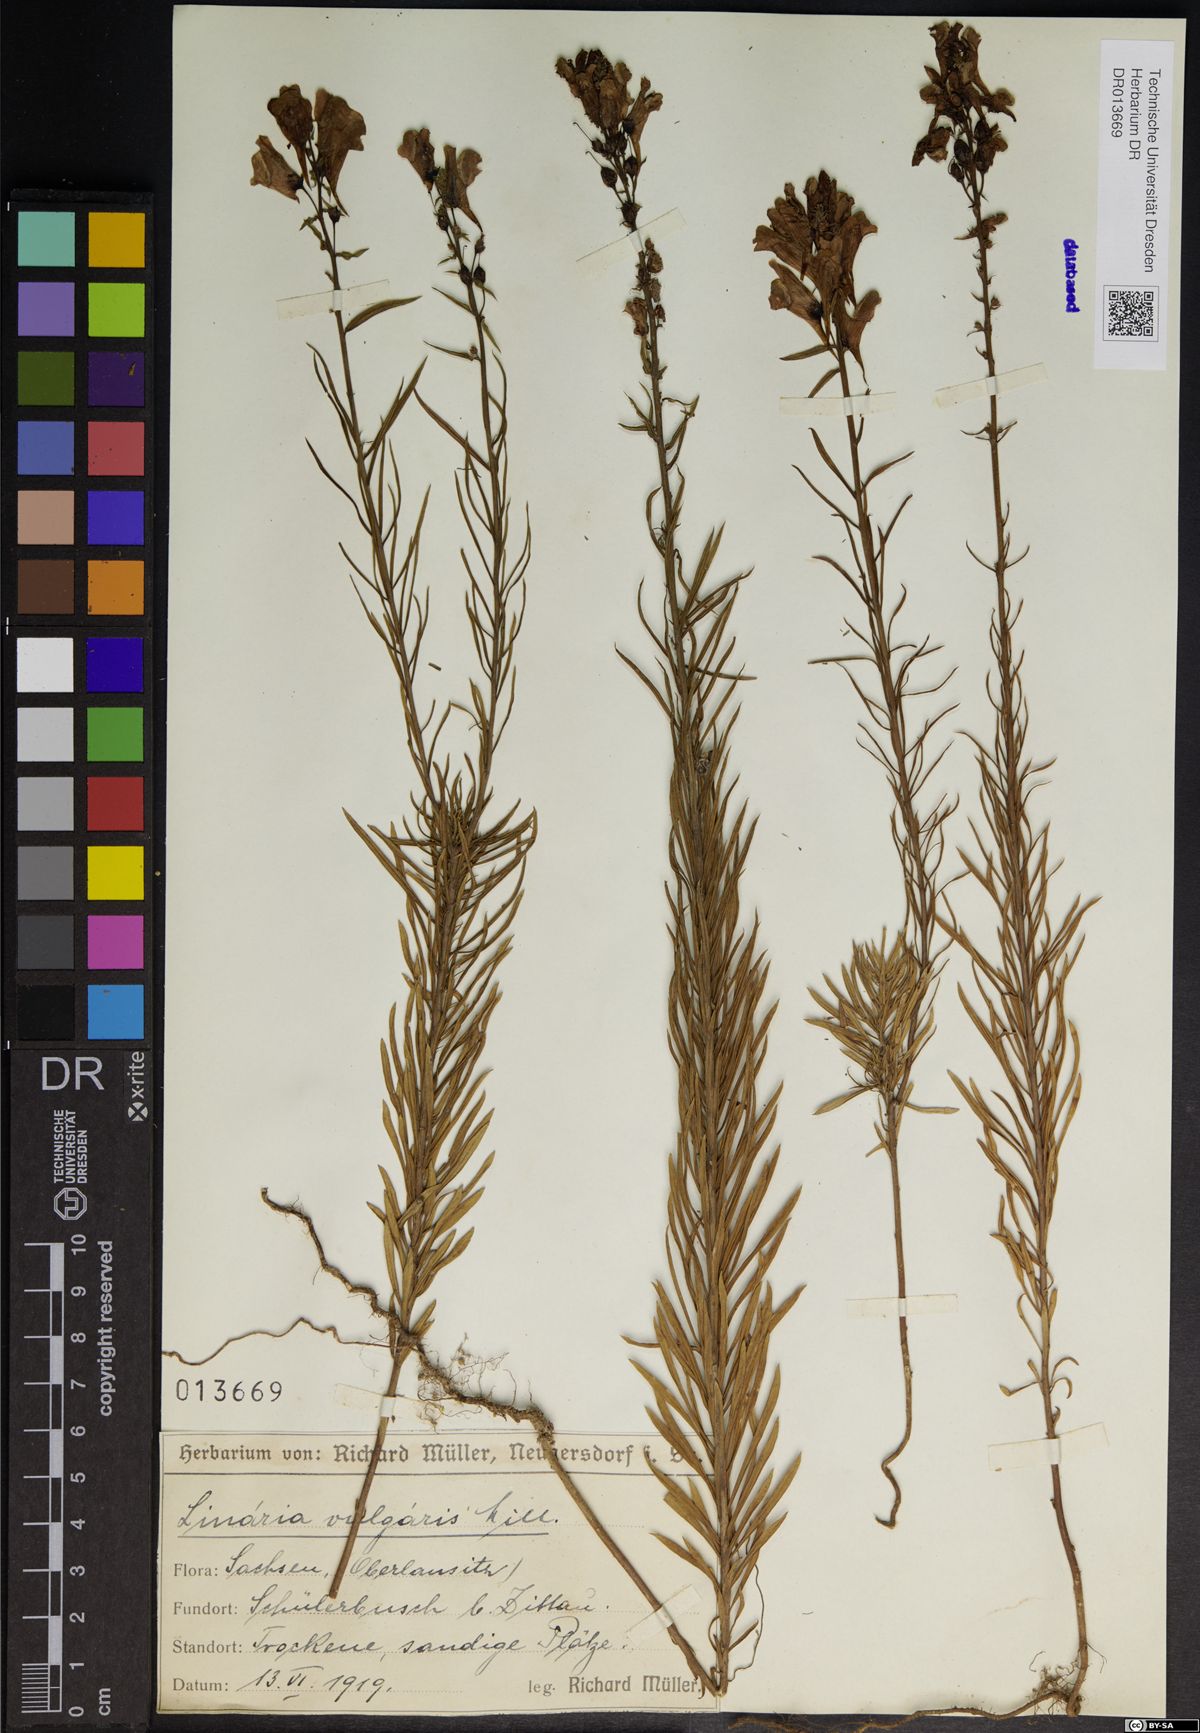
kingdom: Plantae
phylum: Tracheophyta
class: Magnoliopsida
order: Lamiales
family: Plantaginaceae
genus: Linaria
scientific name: Linaria vulgaris
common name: Butter and eggs
